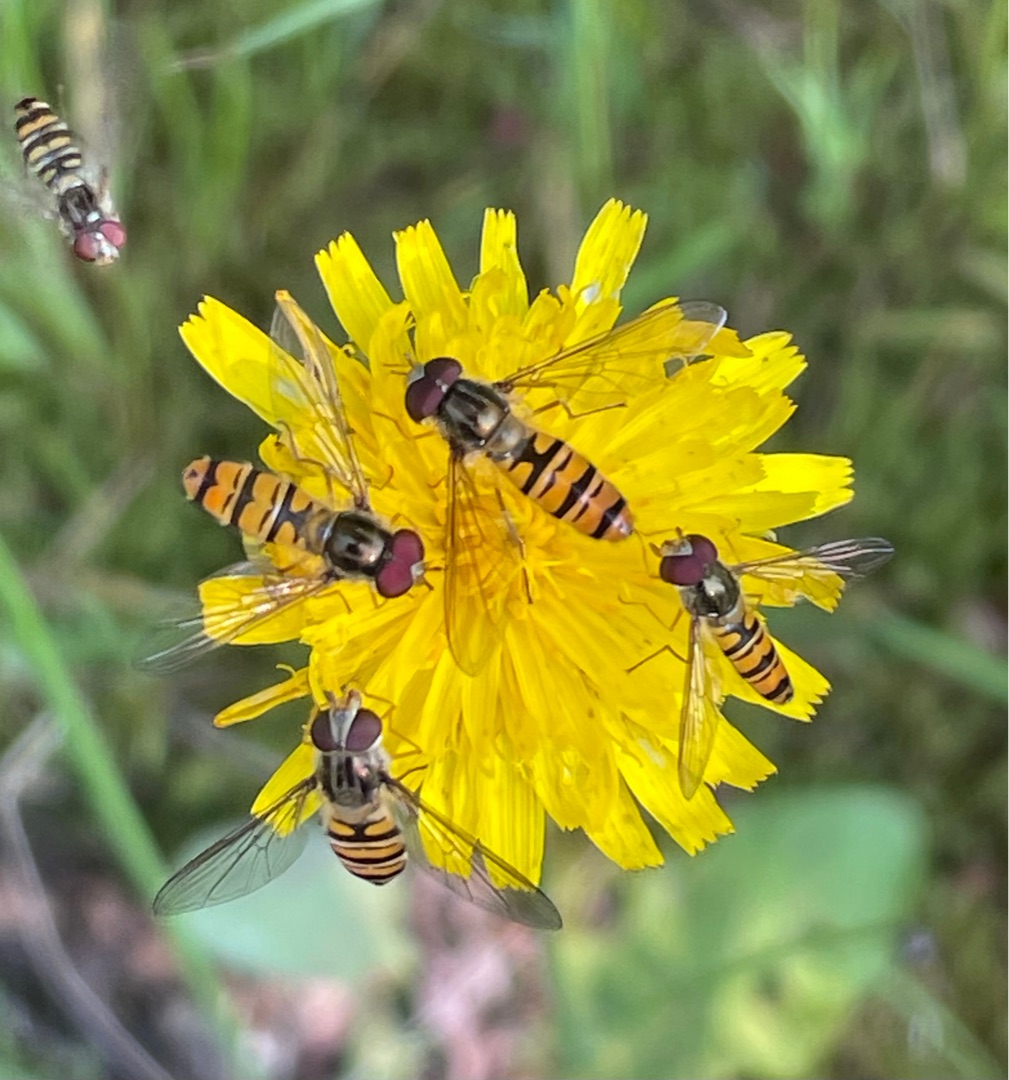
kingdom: Animalia
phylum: Arthropoda
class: Insecta
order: Diptera
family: Syrphidae
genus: Episyrphus
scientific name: Episyrphus balteatus
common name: Dobbeltbåndet svirreflue
